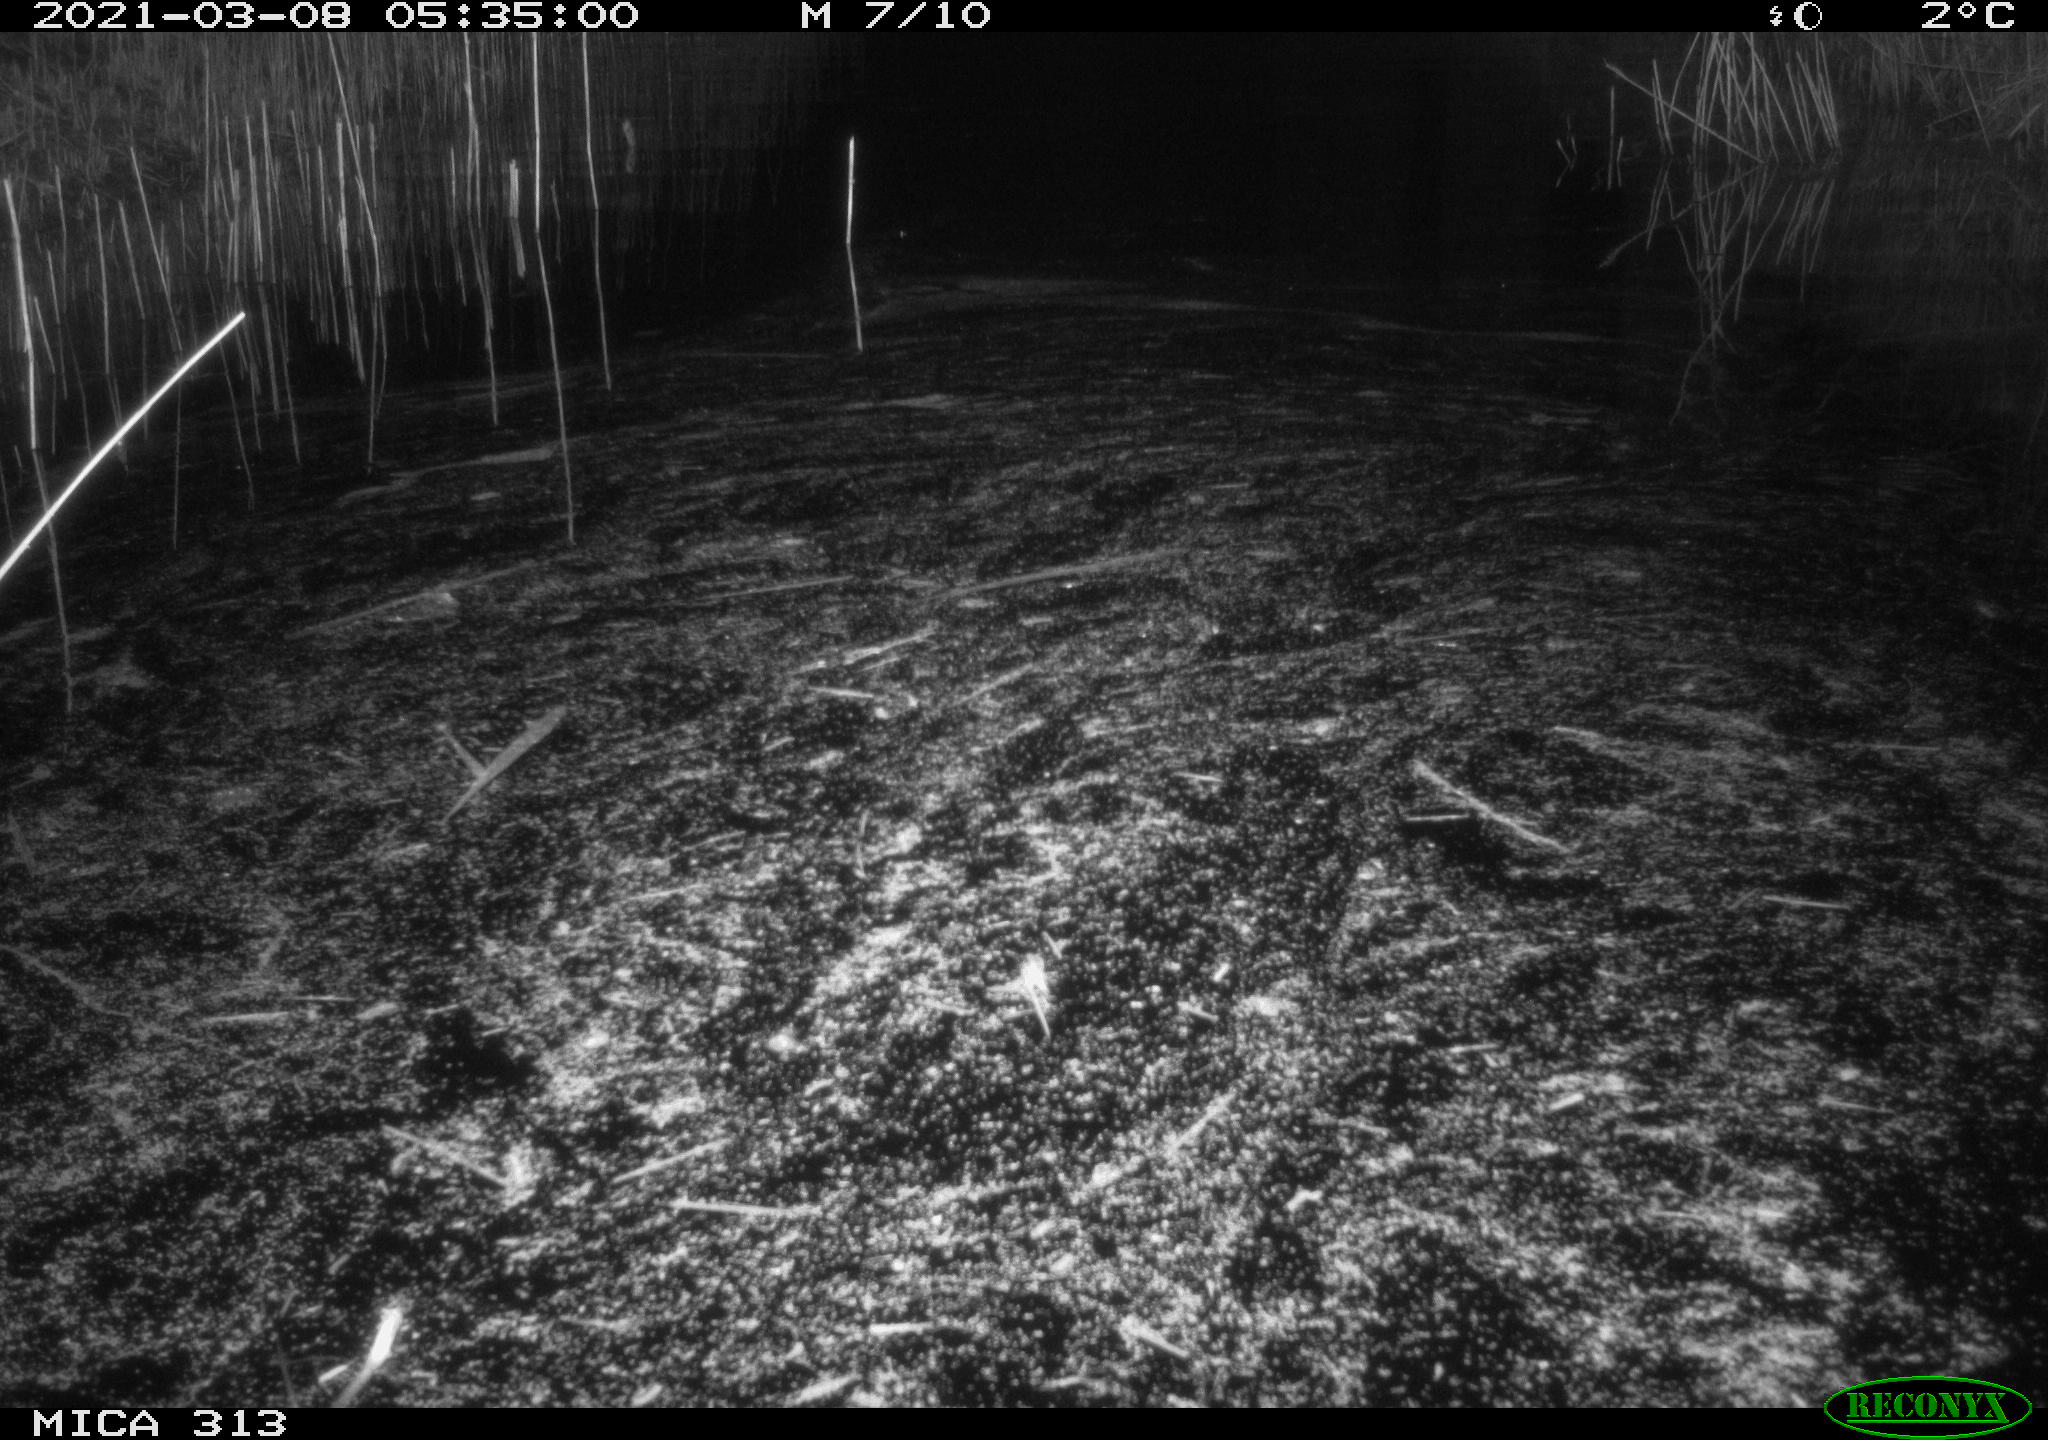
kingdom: Animalia
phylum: Chordata
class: Aves
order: Gruiformes
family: Rallidae
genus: Gallinula
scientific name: Gallinula chloropus
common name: Common moorhen
